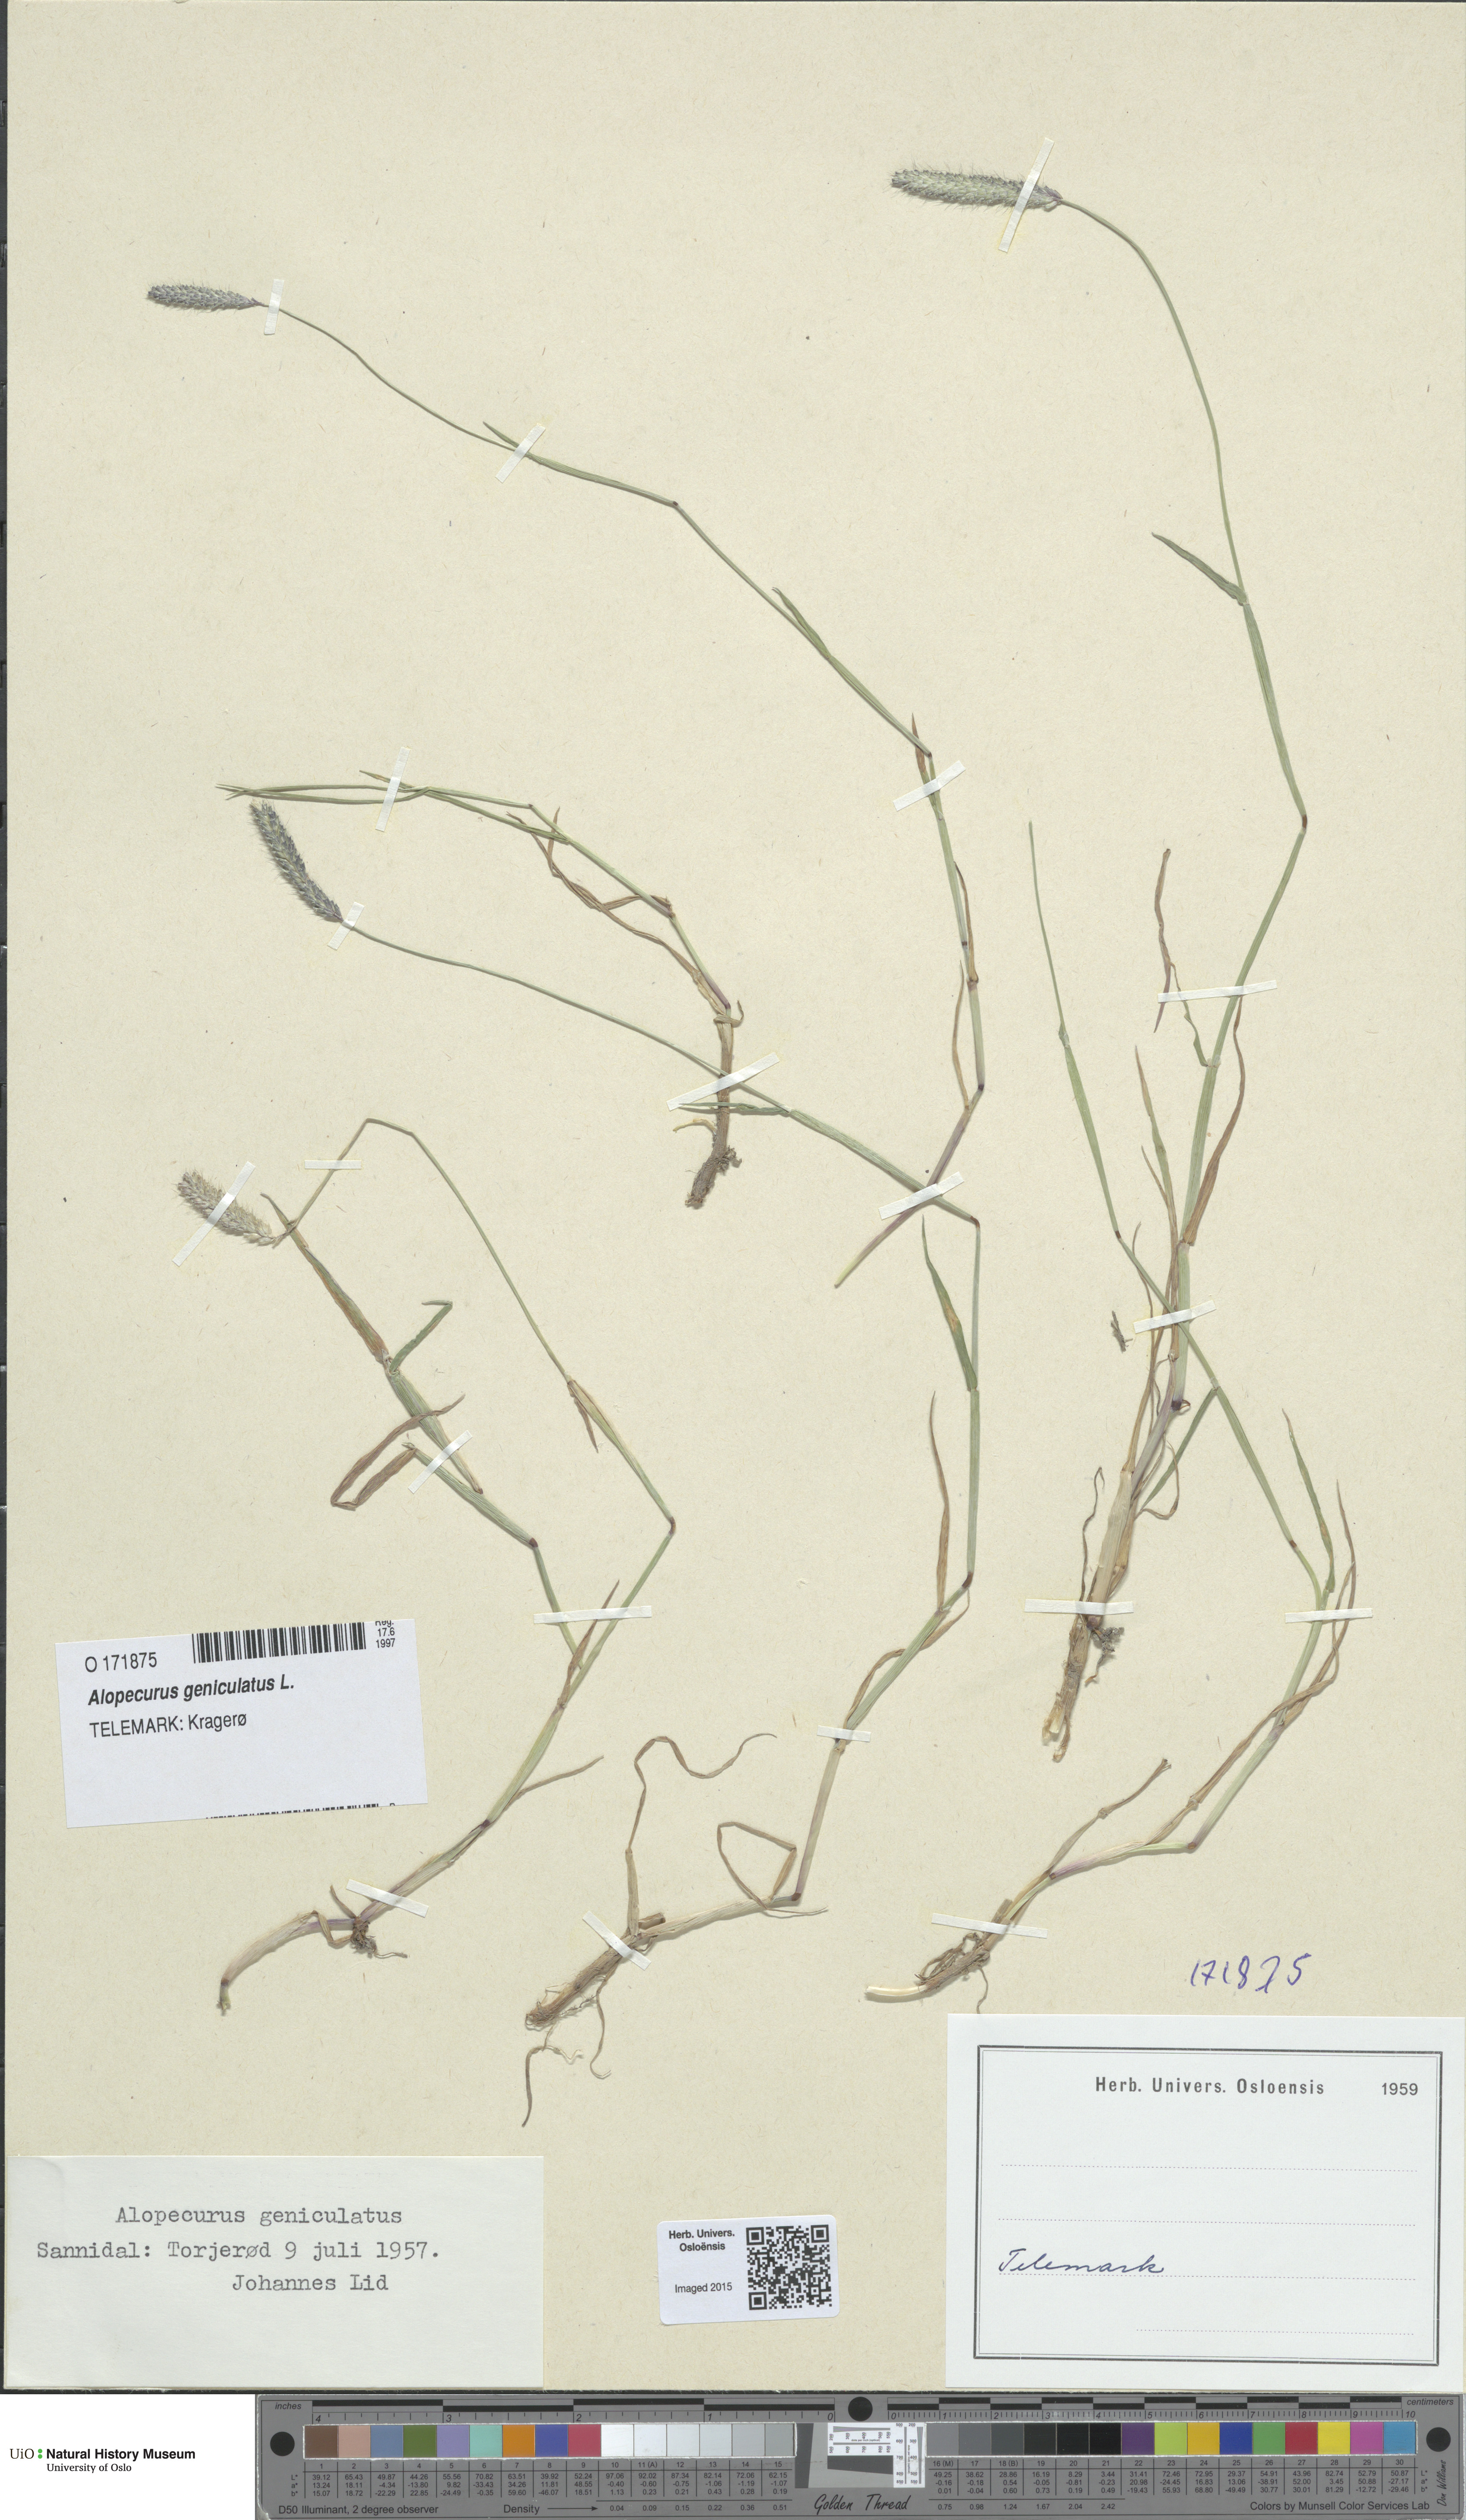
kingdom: Plantae
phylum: Tracheophyta
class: Liliopsida
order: Poales
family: Poaceae
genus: Alopecurus
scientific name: Alopecurus geniculatus
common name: Water foxtail
